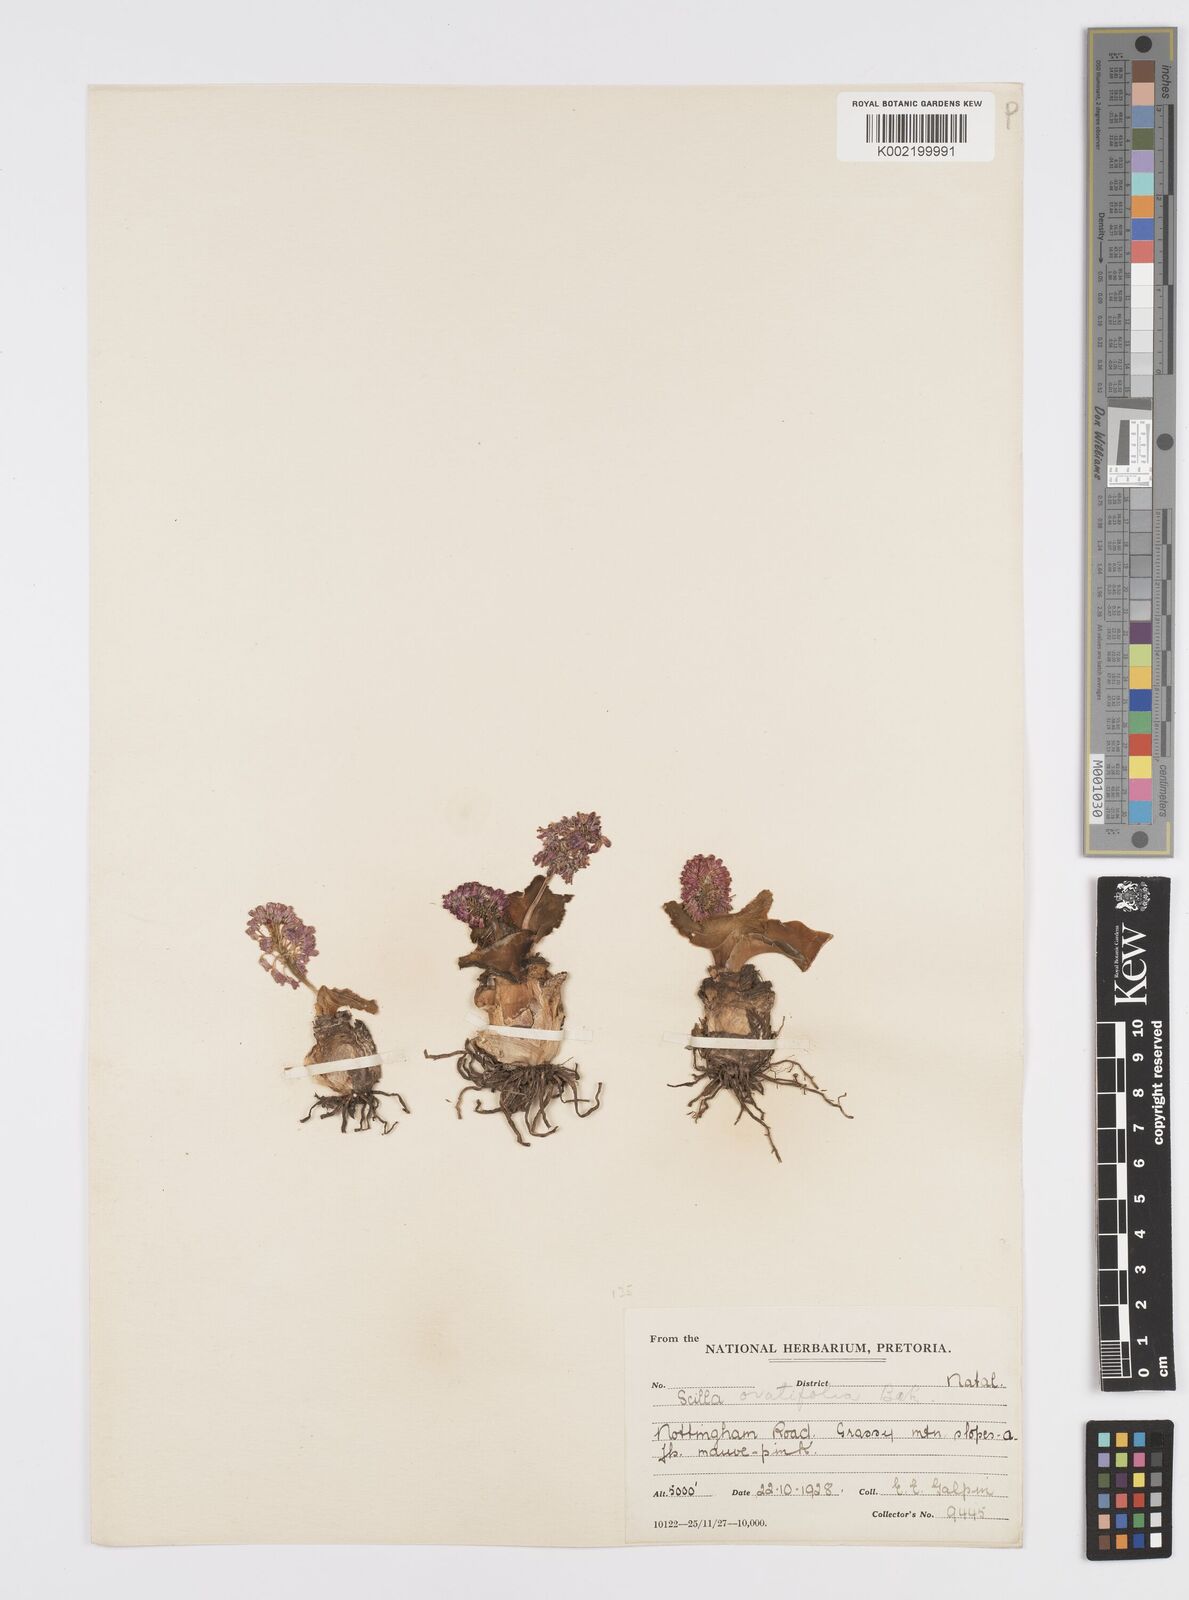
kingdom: Plantae
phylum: Tracheophyta
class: Liliopsida
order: Asparagales
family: Asparagaceae
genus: Ledebouria
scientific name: Ledebouria ovatifolia
